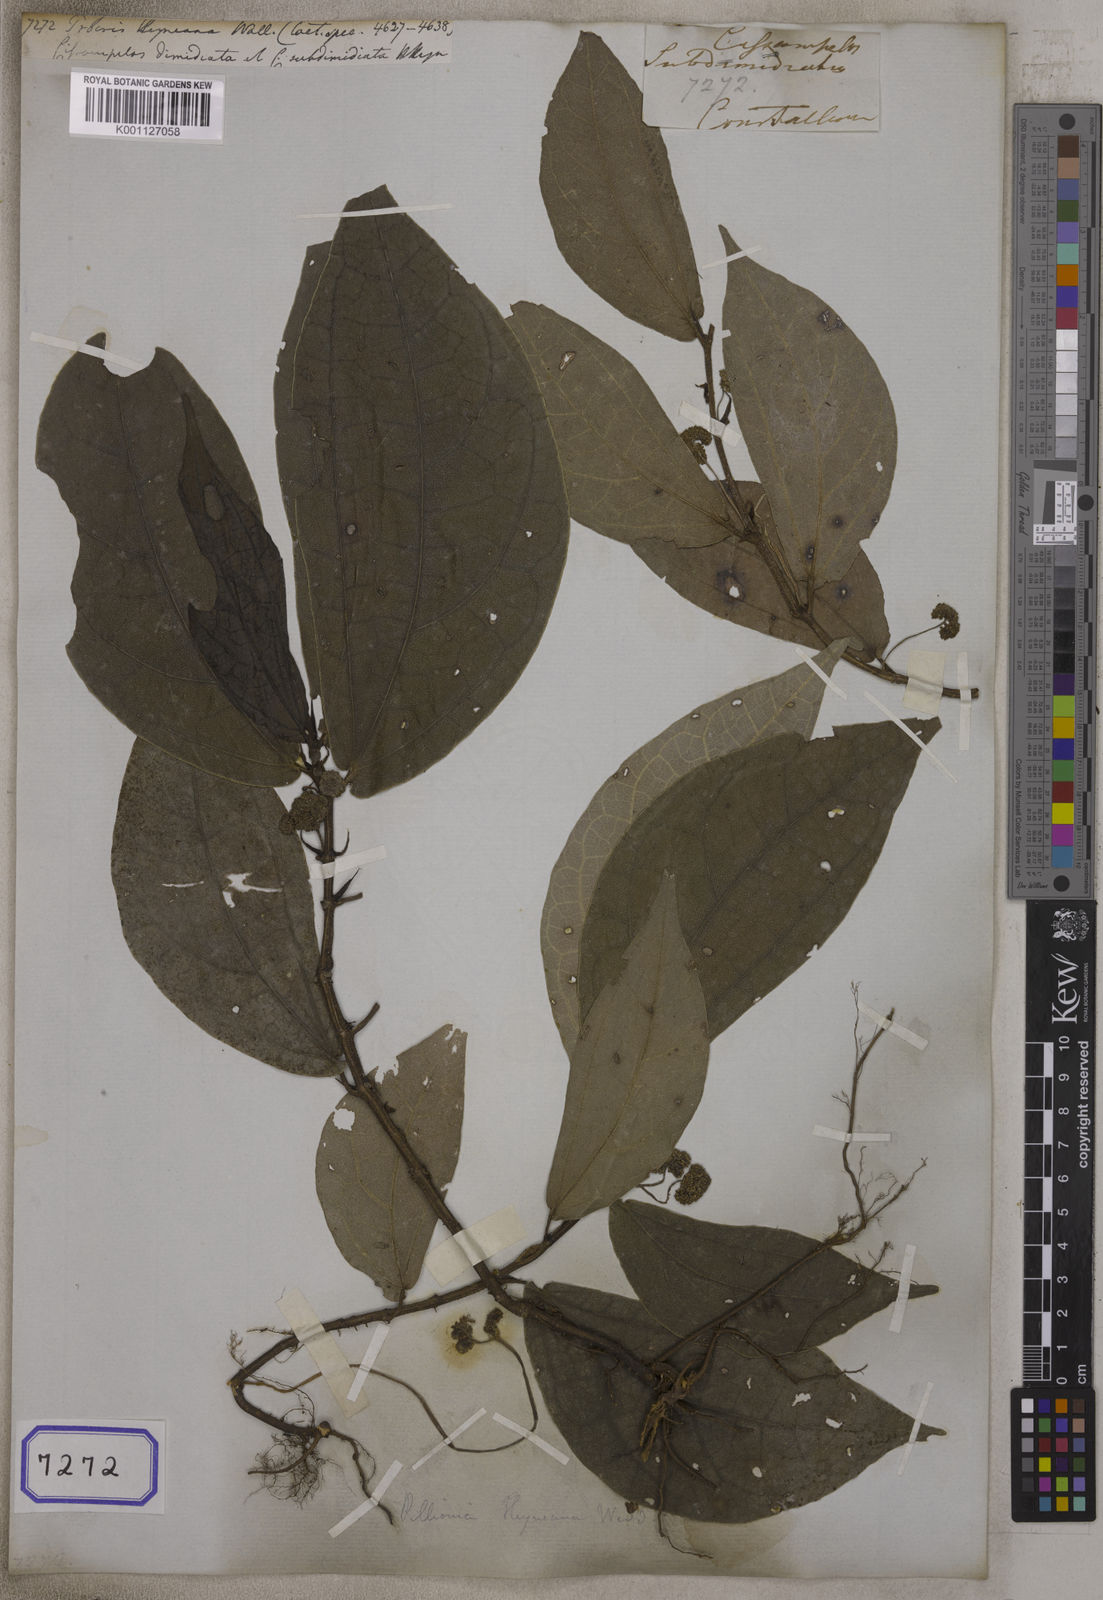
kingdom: Plantae
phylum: Tracheophyta
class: Magnoliopsida
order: Rosales
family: Urticaceae
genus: Elatostema
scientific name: Elatostema heyneanum
